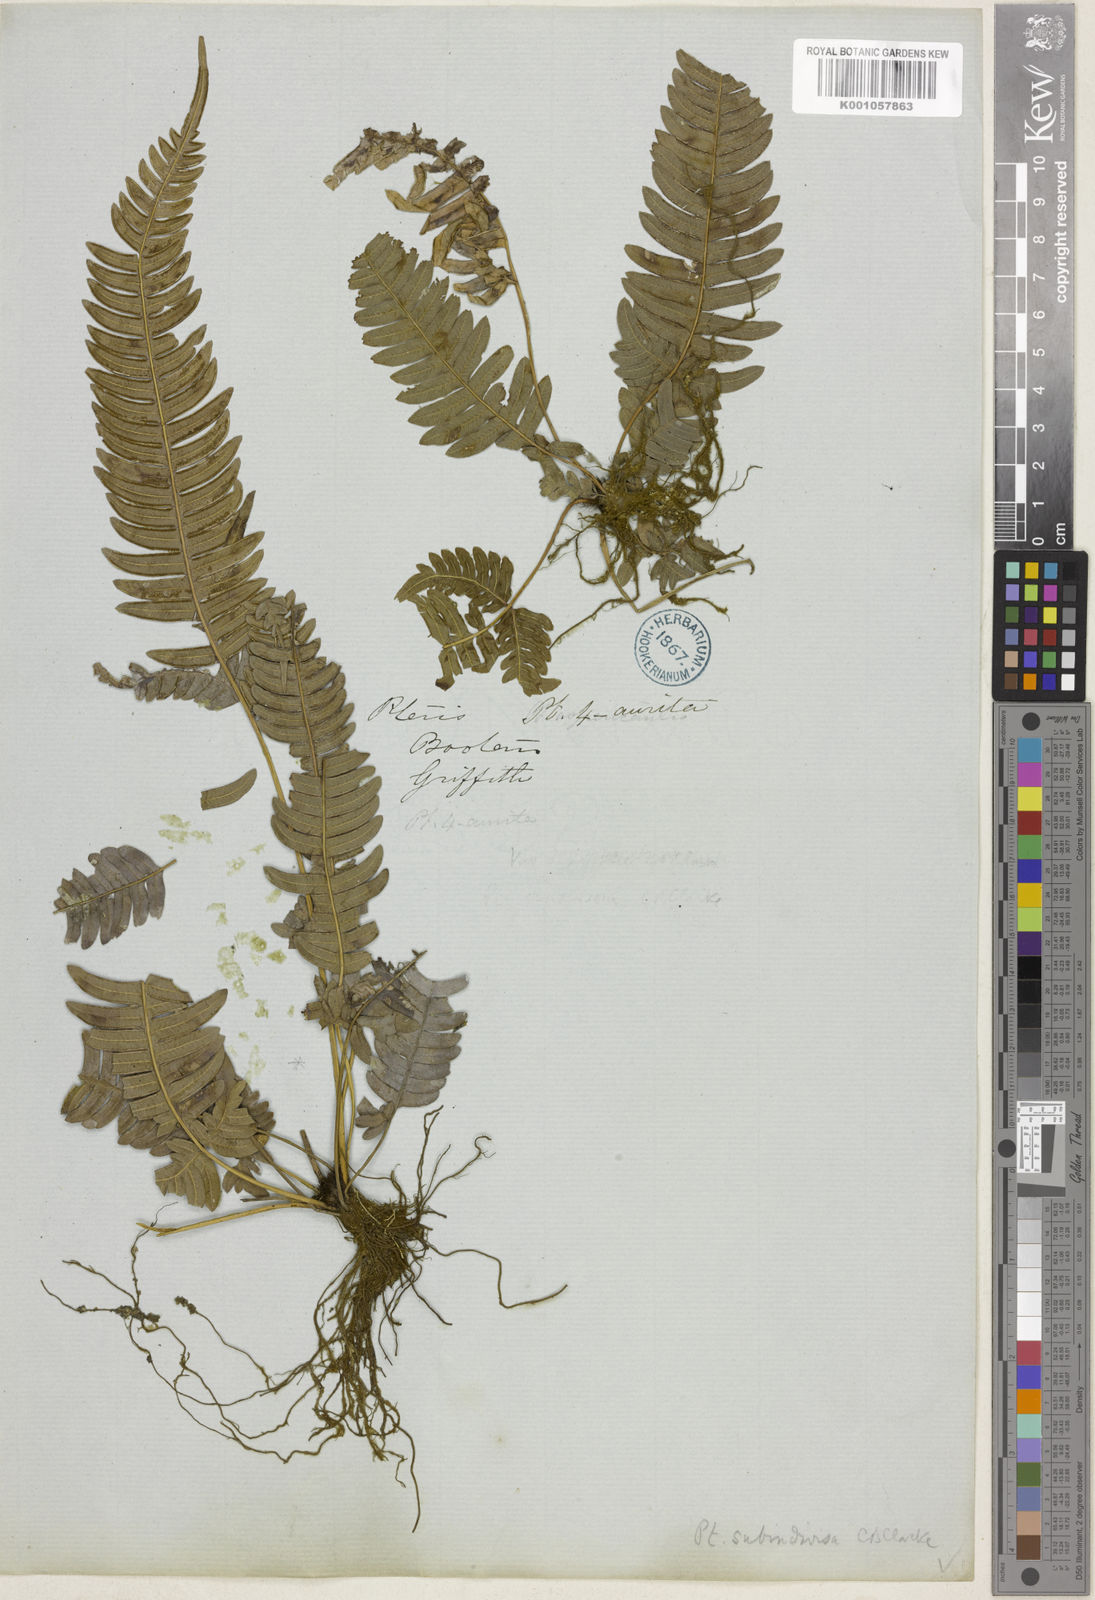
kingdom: Plantae
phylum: Tracheophyta
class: Polypodiopsida
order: Polypodiales
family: Pteridaceae
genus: Pteris
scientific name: Pteris subindivisa
